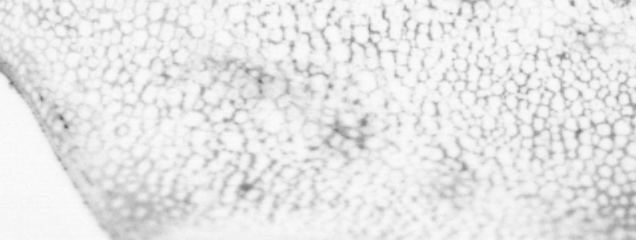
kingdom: Animalia
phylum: Chordata
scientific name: Chordata
